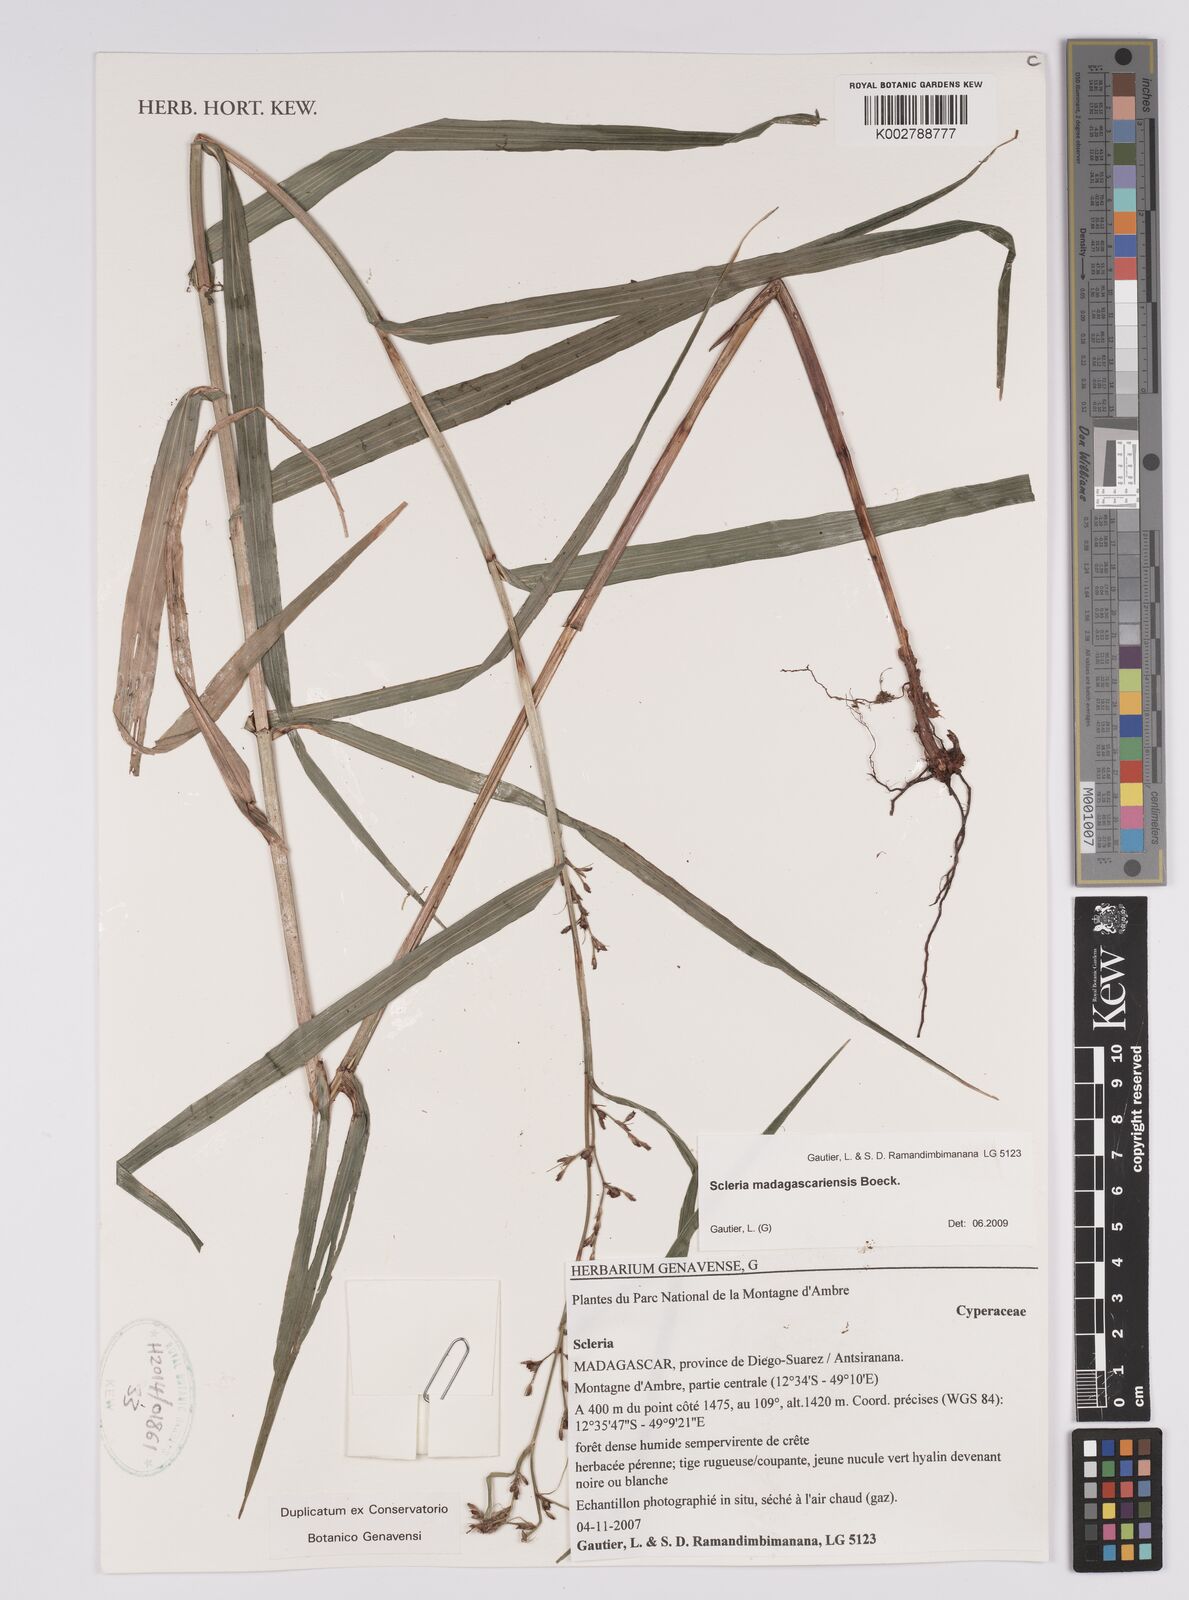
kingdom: Plantae
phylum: Tracheophyta
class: Liliopsida
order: Poales
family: Cyperaceae
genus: Scleria
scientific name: Scleria madagascariensis
